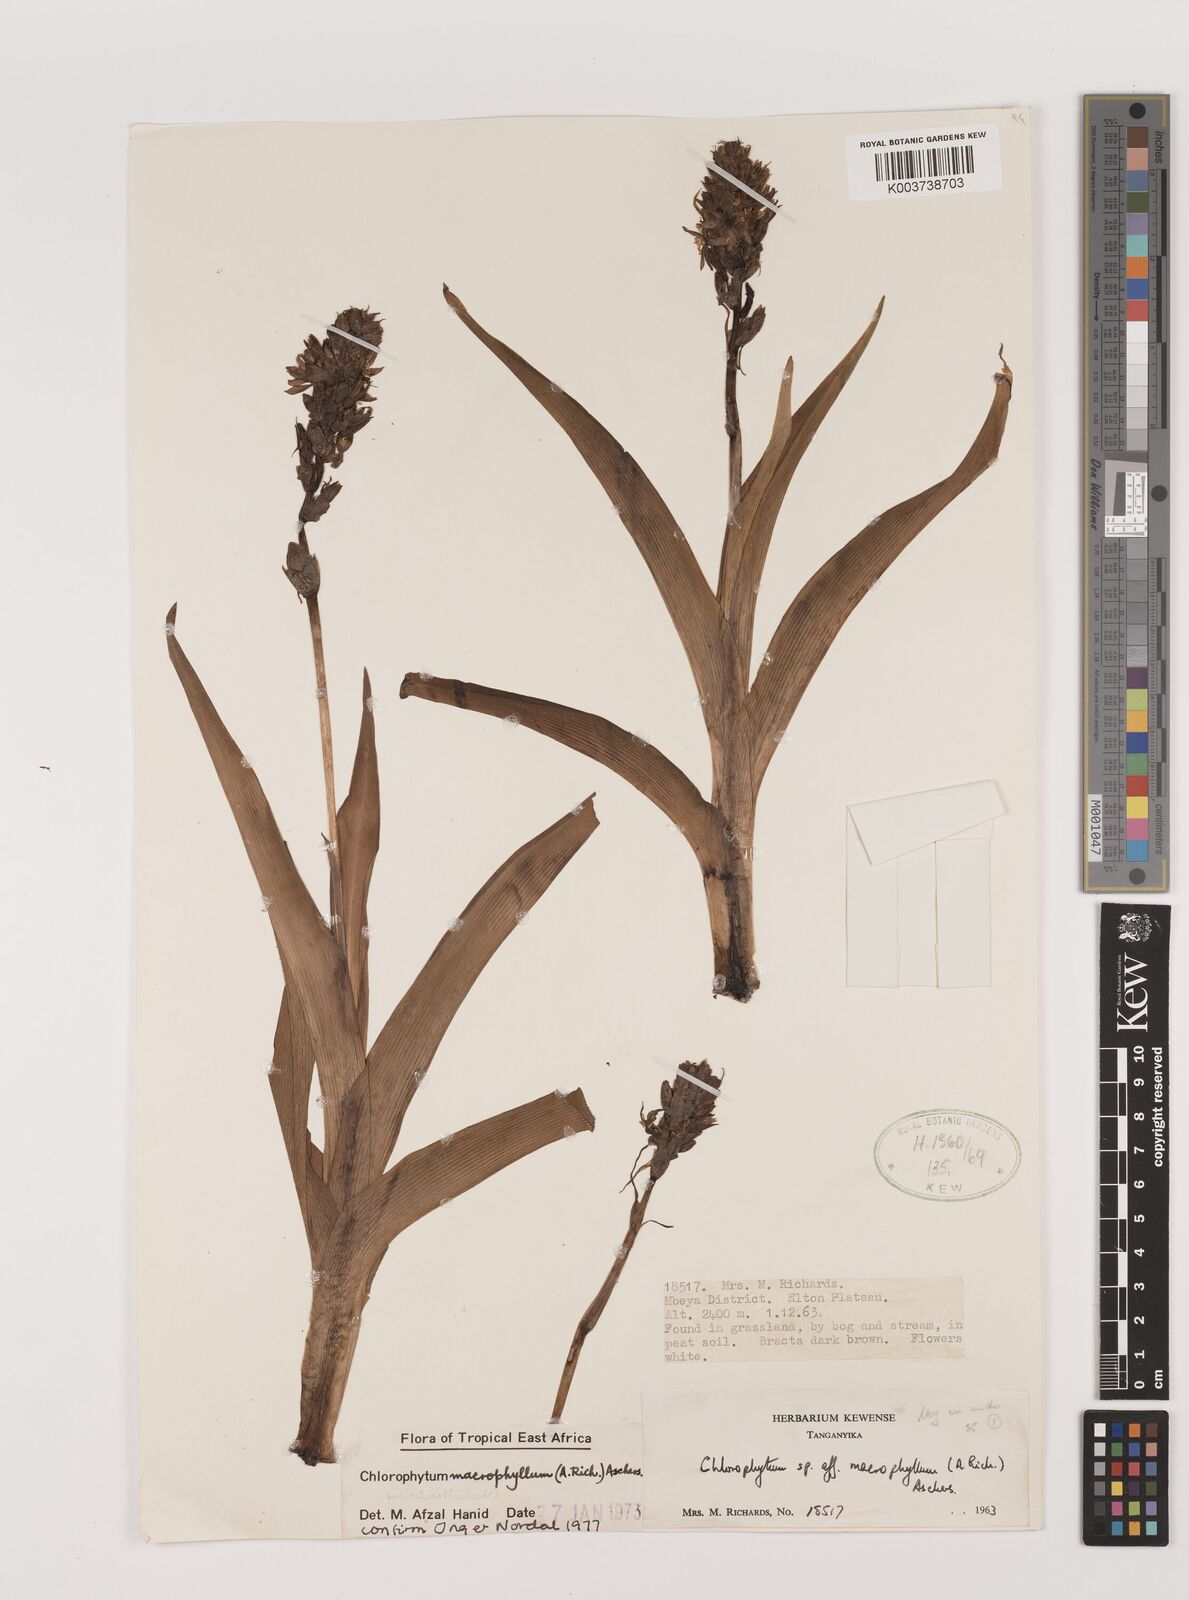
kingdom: Plantae
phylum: Tracheophyta
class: Liliopsida
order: Asparagales
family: Asparagaceae
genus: Chlorophytum
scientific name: Chlorophytum macrophyllum
